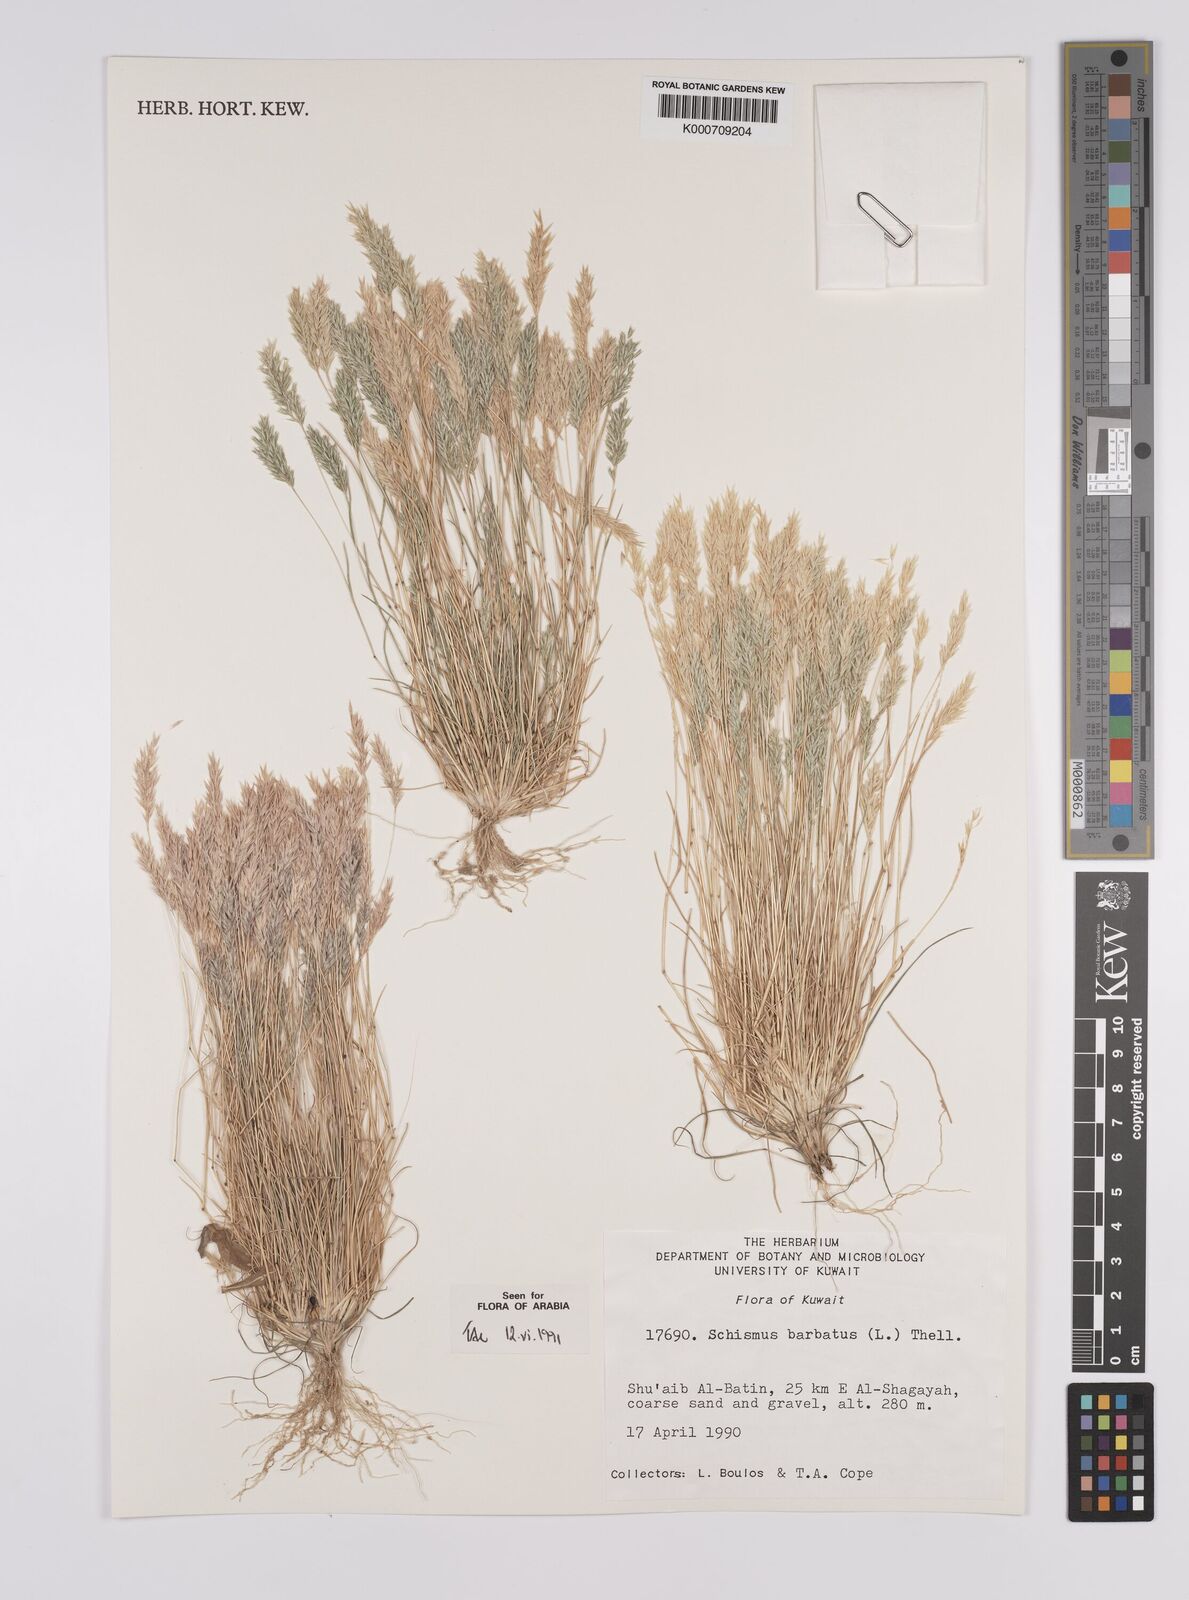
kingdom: Plantae
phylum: Tracheophyta
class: Liliopsida
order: Poales
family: Poaceae
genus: Schismus
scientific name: Schismus barbatus
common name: Kelch-grass
